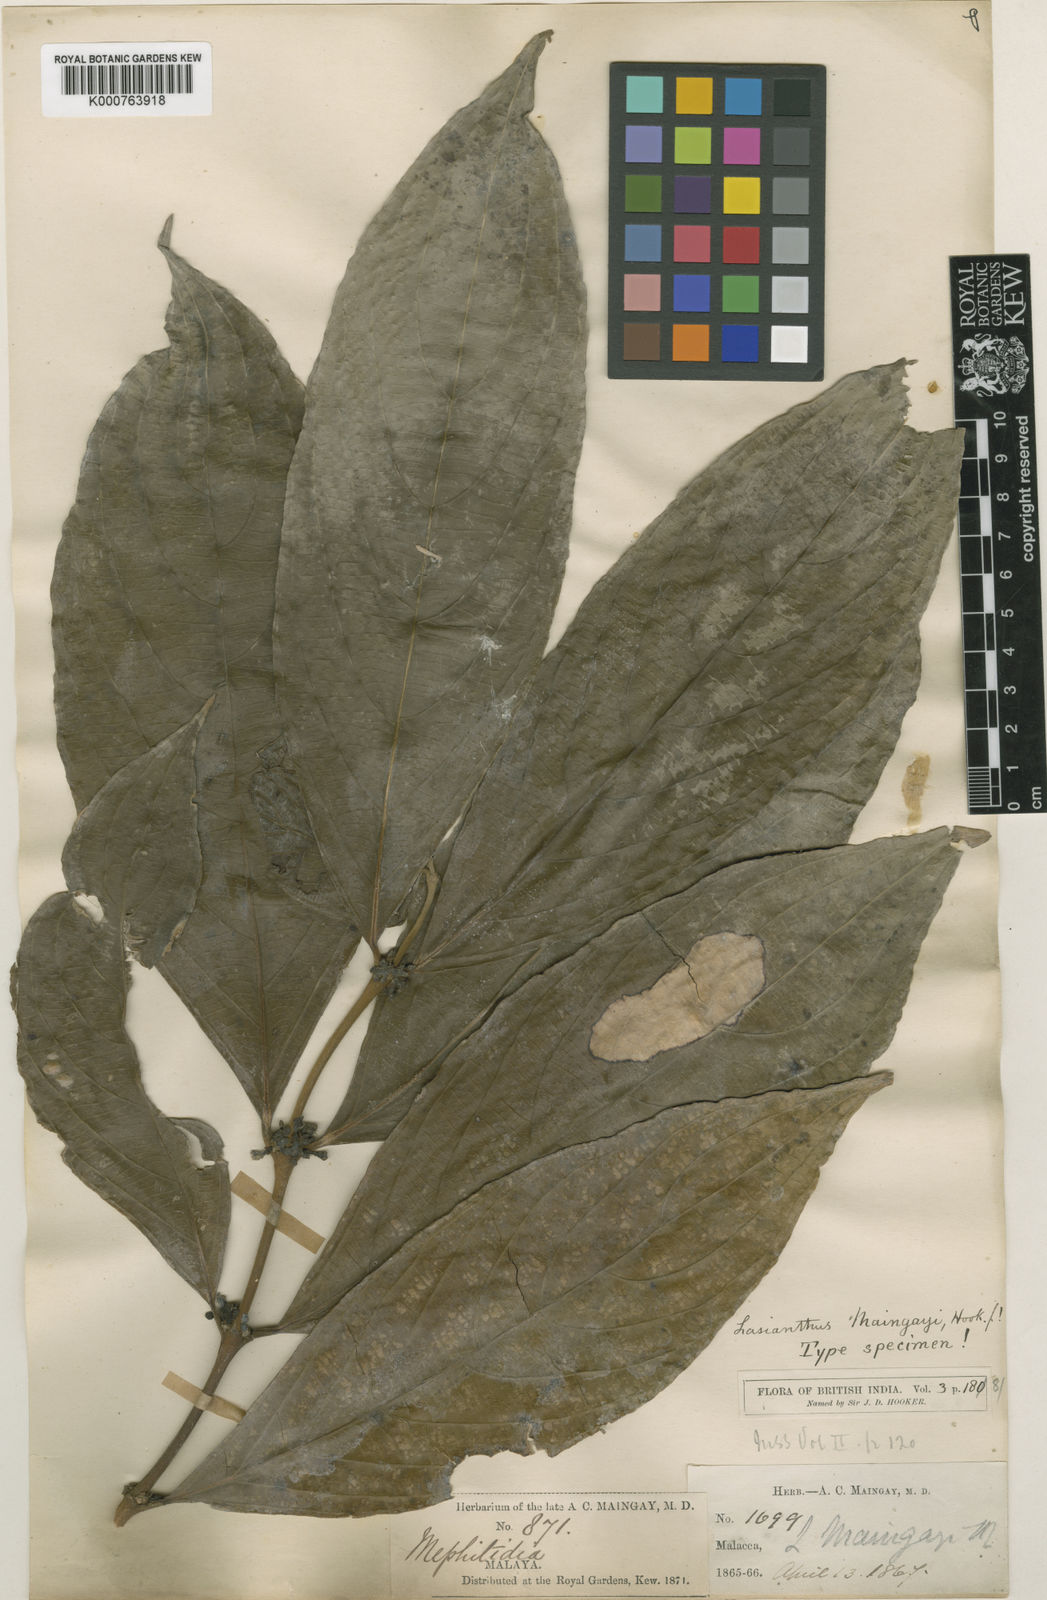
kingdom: Plantae
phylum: Tracheophyta
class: Magnoliopsida
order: Gentianales
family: Rubiaceae
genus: Lasianthus
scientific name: Lasianthus verticillatus
